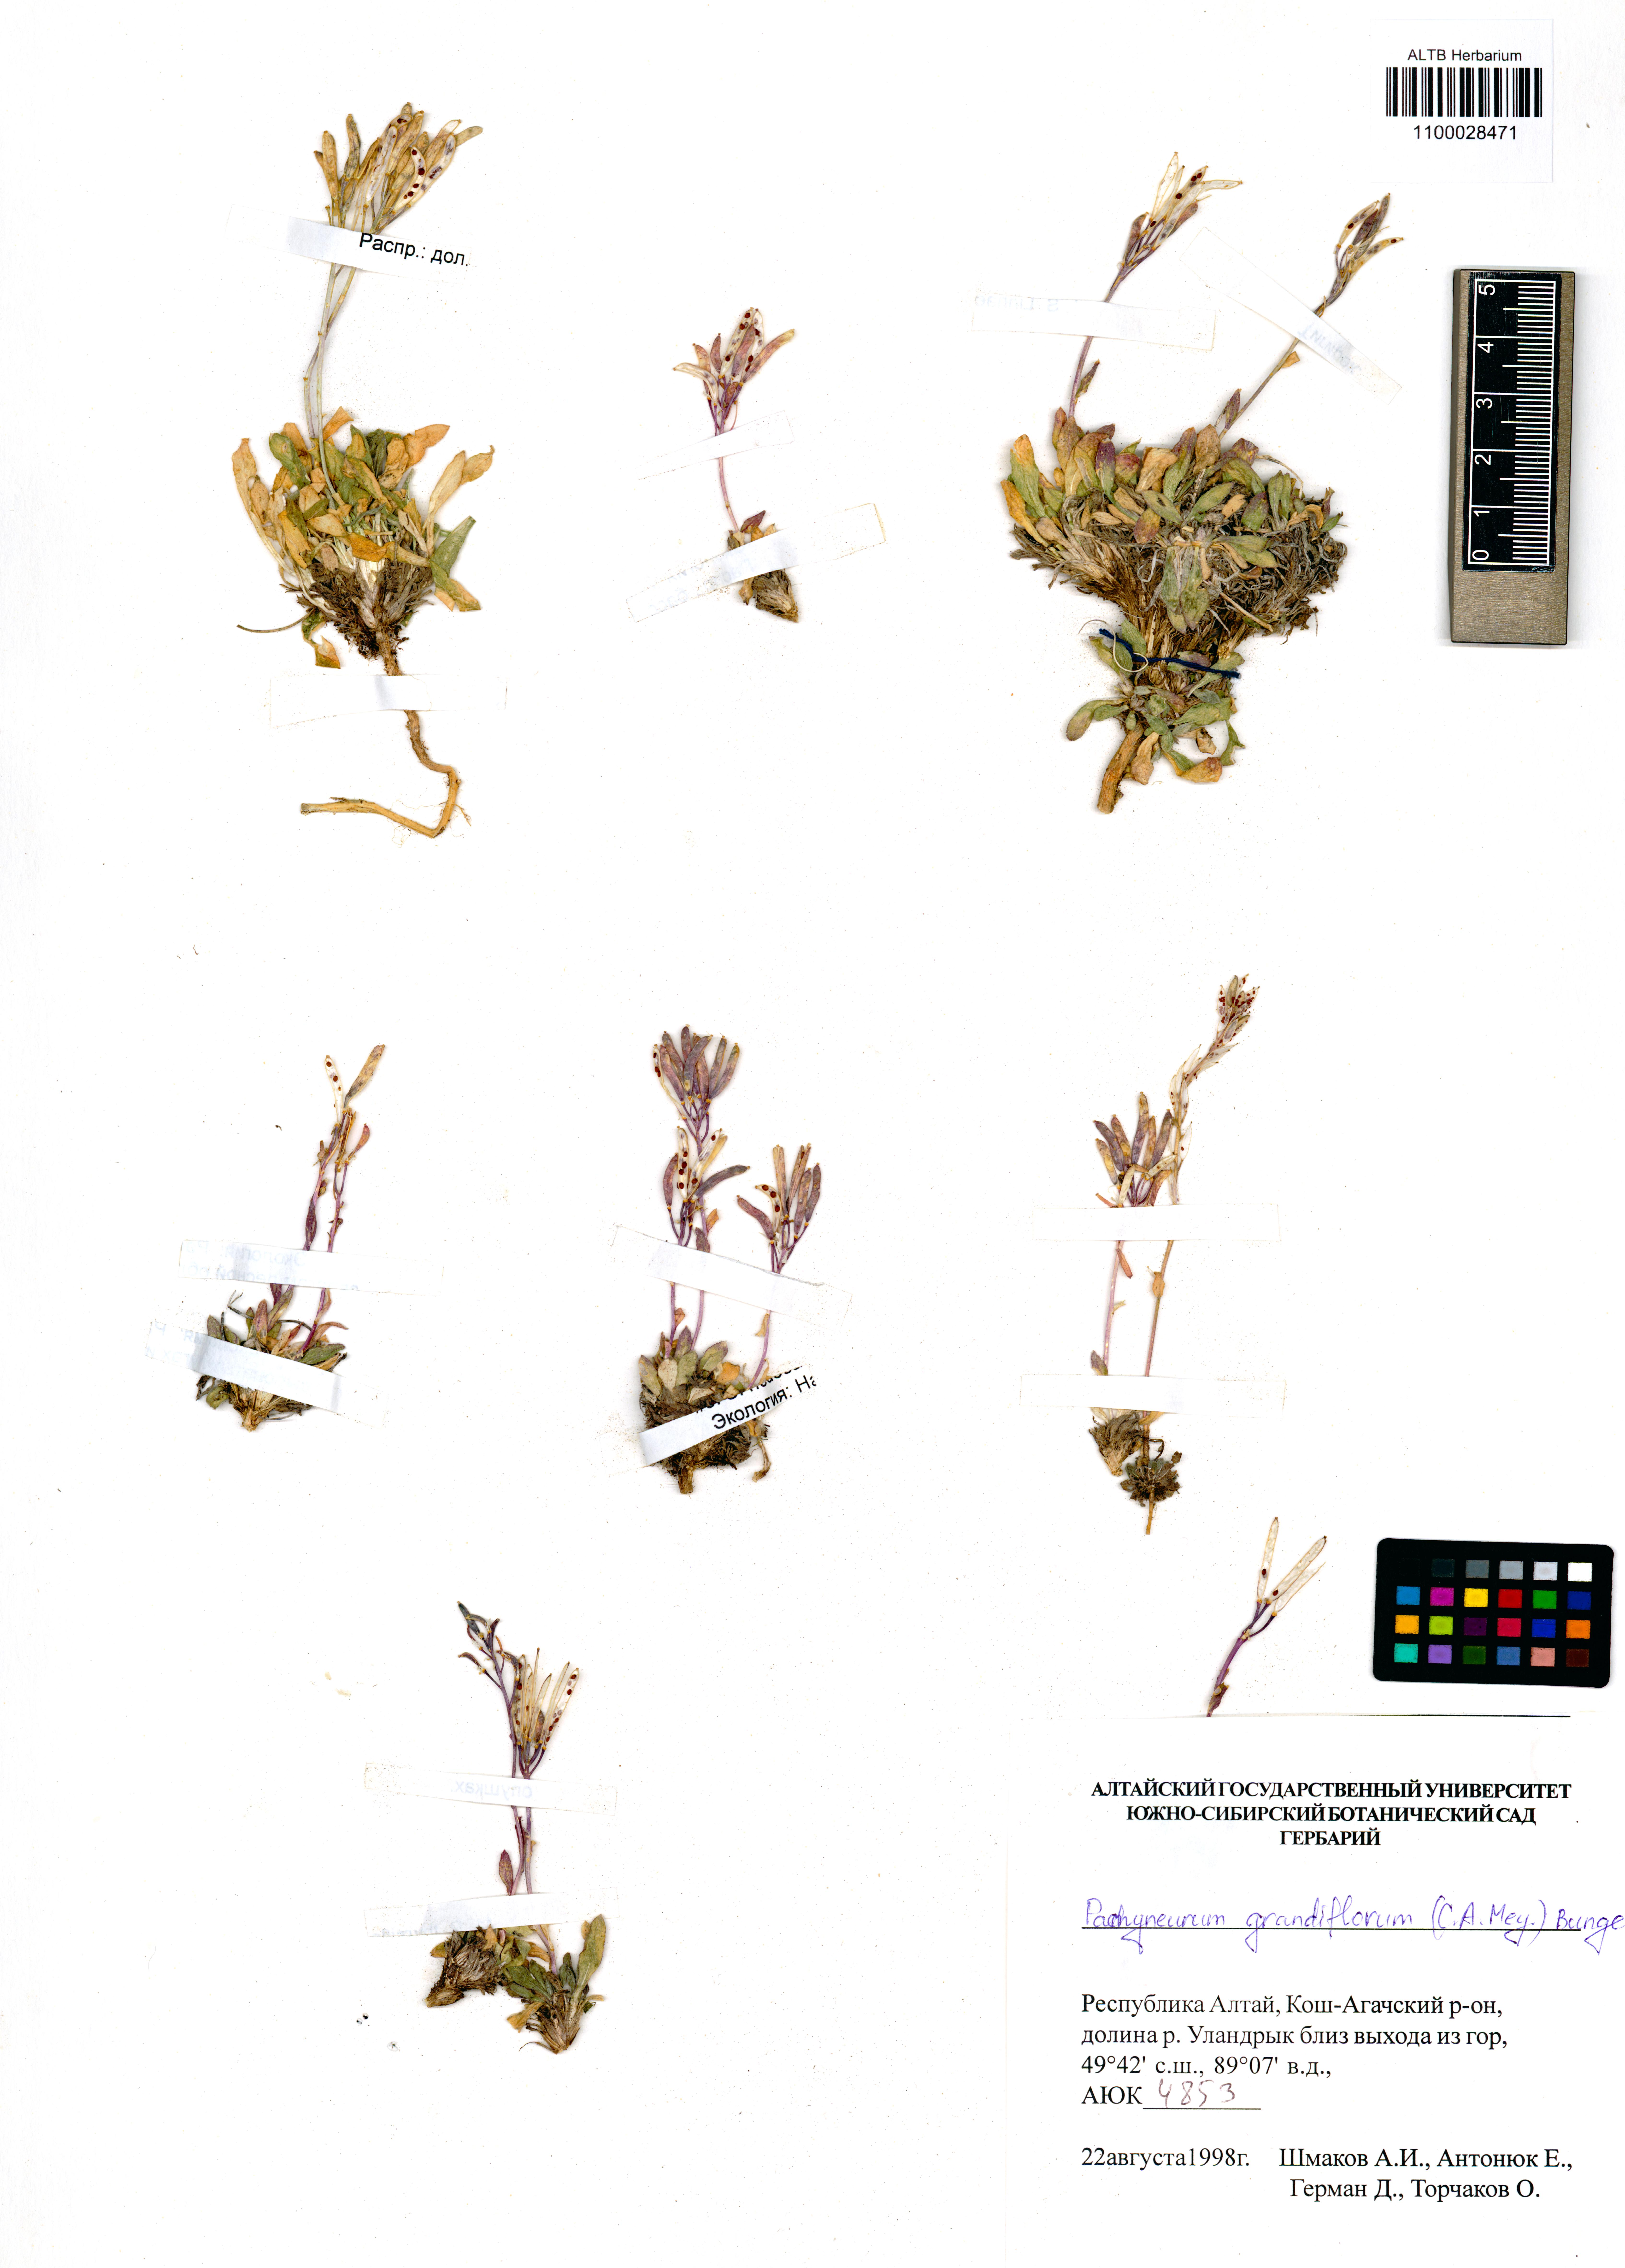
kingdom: Plantae
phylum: Tracheophyta
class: Magnoliopsida
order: Brassicales
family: Brassicaceae
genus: Pachyneurum
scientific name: Pachyneurum grandiflorum
